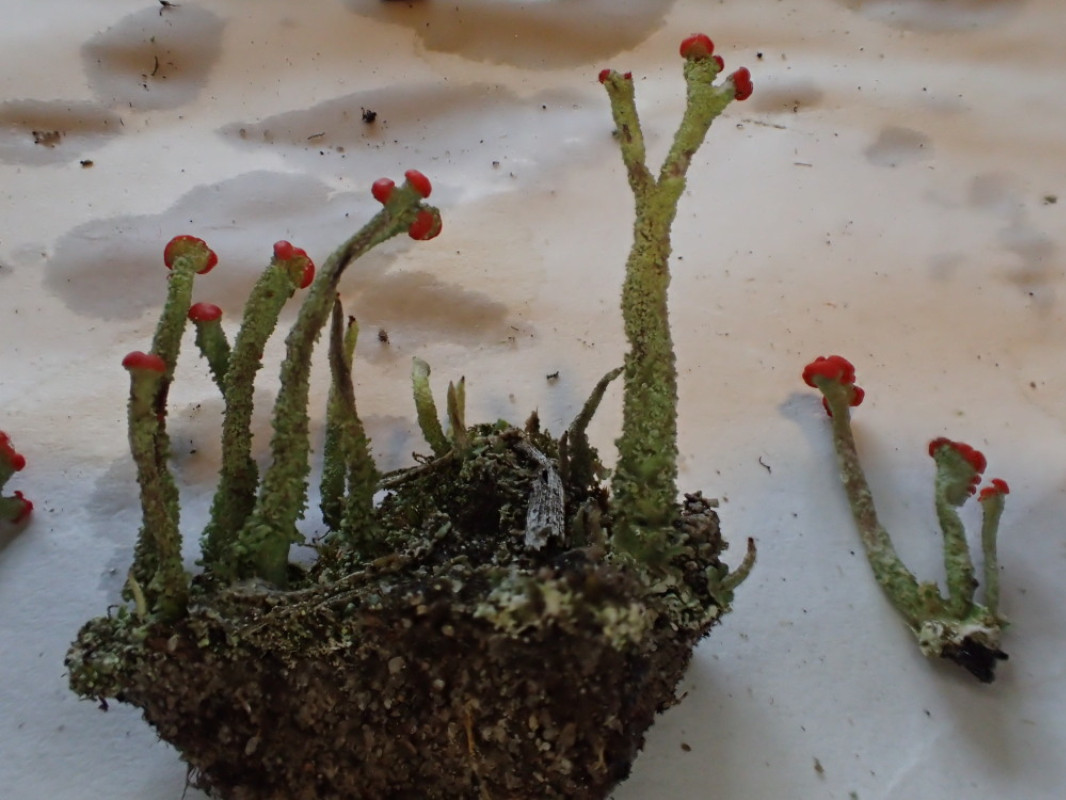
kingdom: Fungi
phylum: Ascomycota
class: Lecanoromycetes
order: Lecanorales
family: Cladoniaceae
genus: Cladonia
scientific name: Cladonia floerkeana
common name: lakrød bægerlav
